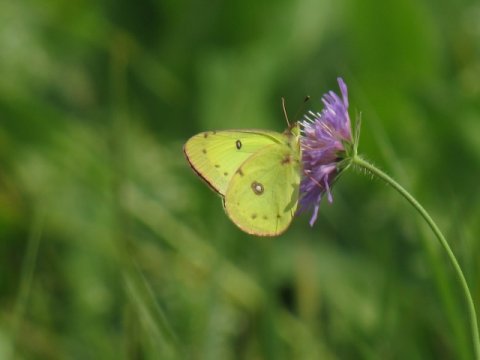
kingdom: Animalia
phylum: Arthropoda
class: Insecta
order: Lepidoptera
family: Pieridae
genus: Colias
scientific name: Colias philodice
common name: Clouded Sulphur
